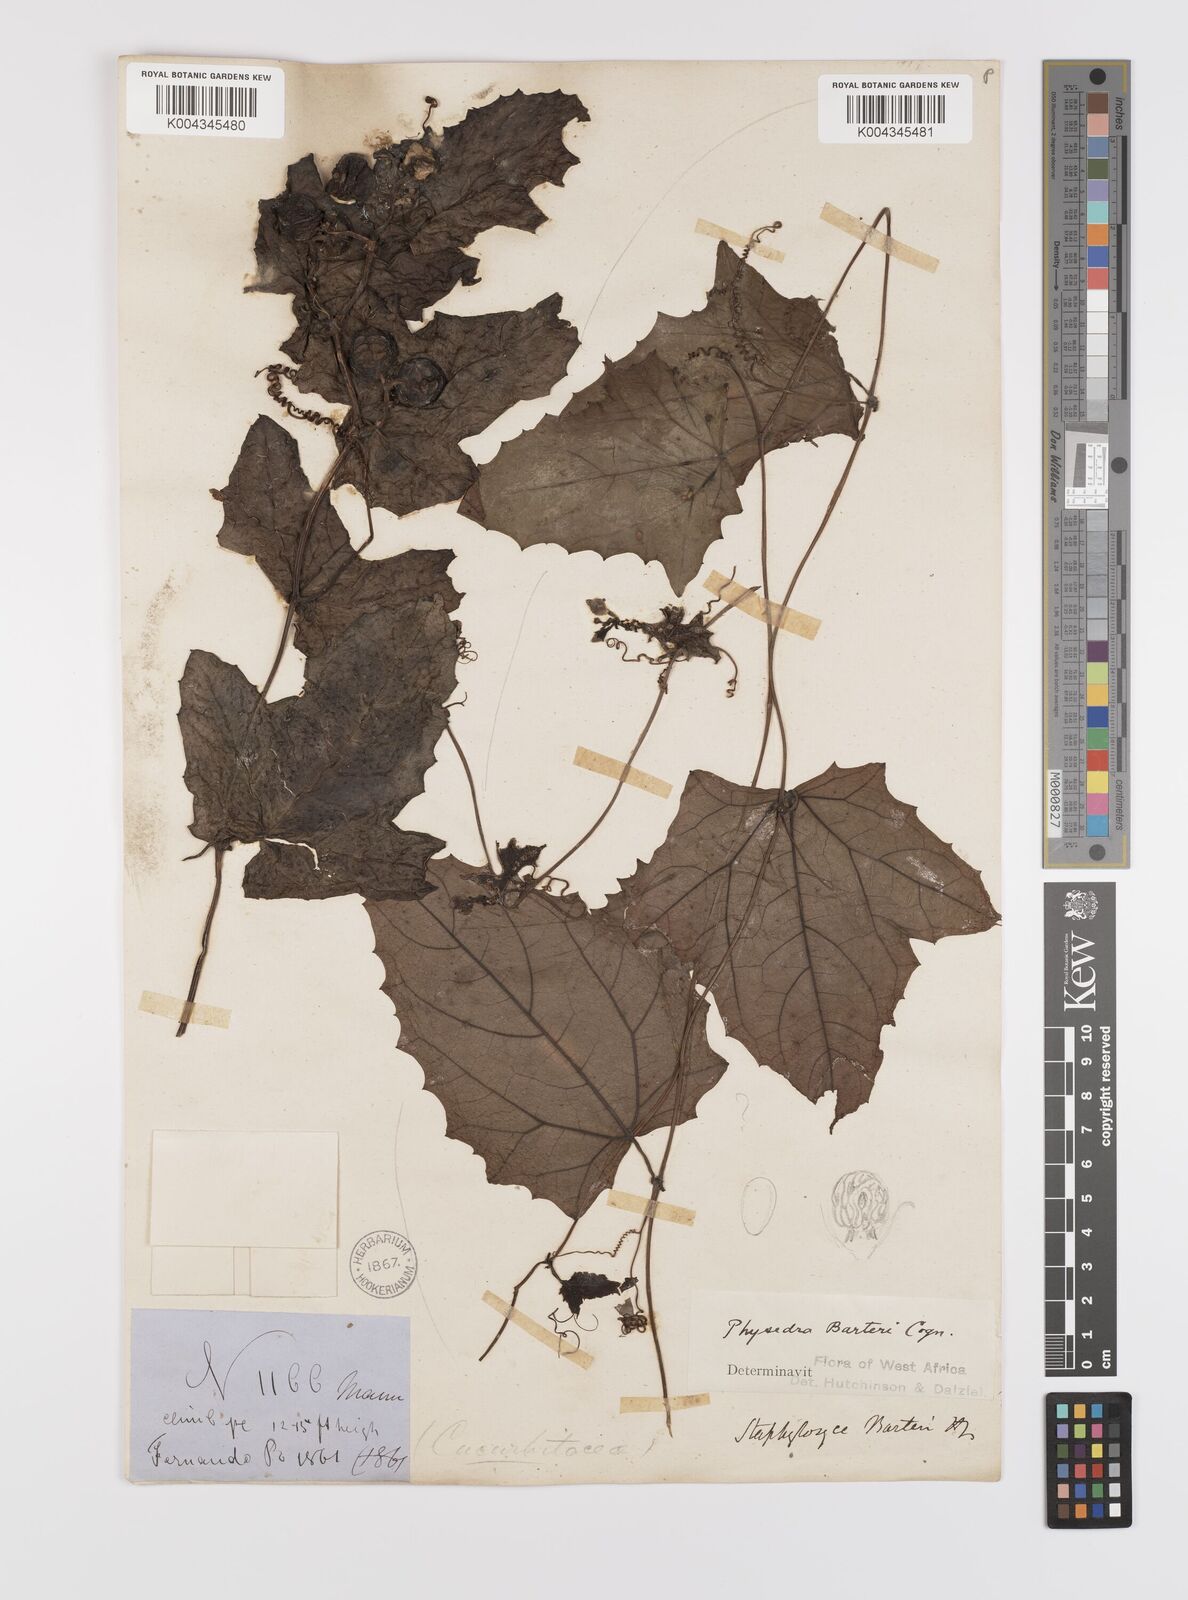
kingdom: Plantae
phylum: Tracheophyta
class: Magnoliopsida
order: Cucurbitales
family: Cucurbitaceae
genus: Coccinia
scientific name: Coccinia barteri
